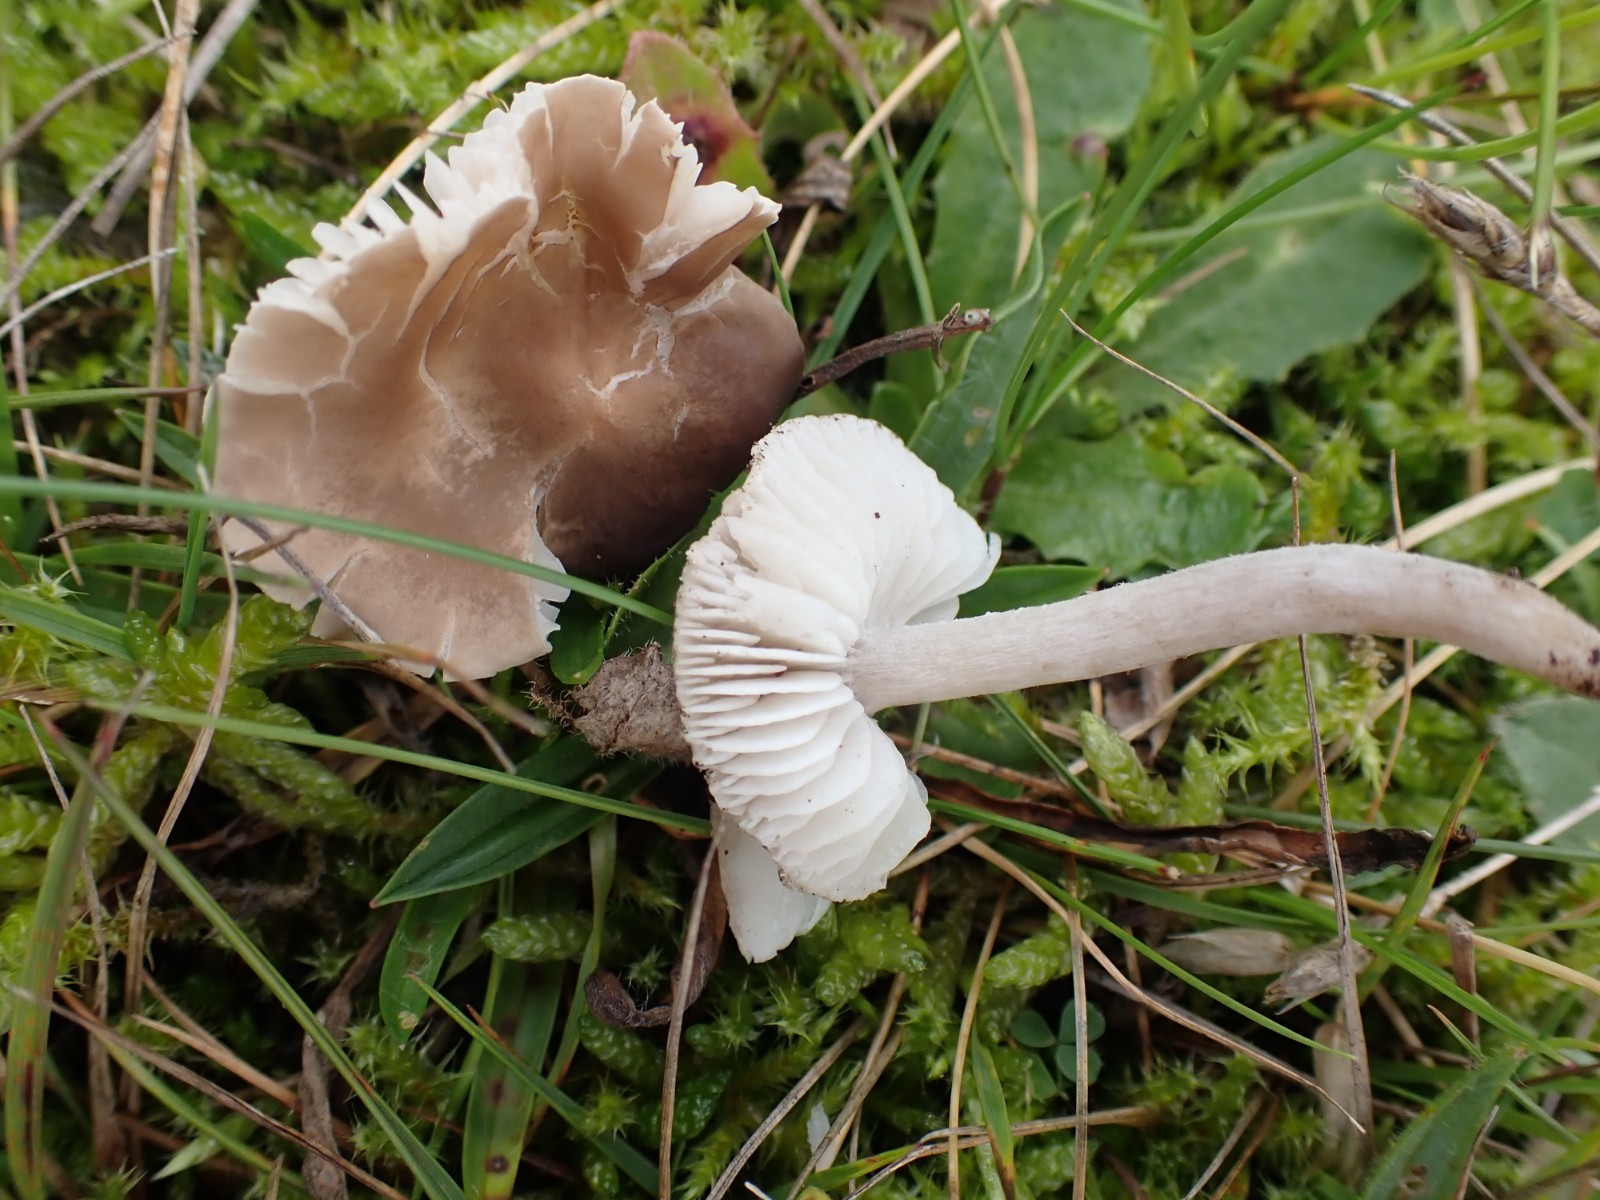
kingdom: Fungi
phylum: Basidiomycota
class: Agaricomycetes
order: Agaricales
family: Tricholomataceae
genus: Dermoloma
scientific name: Dermoloma cuneifolium
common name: eng-nonnehat
